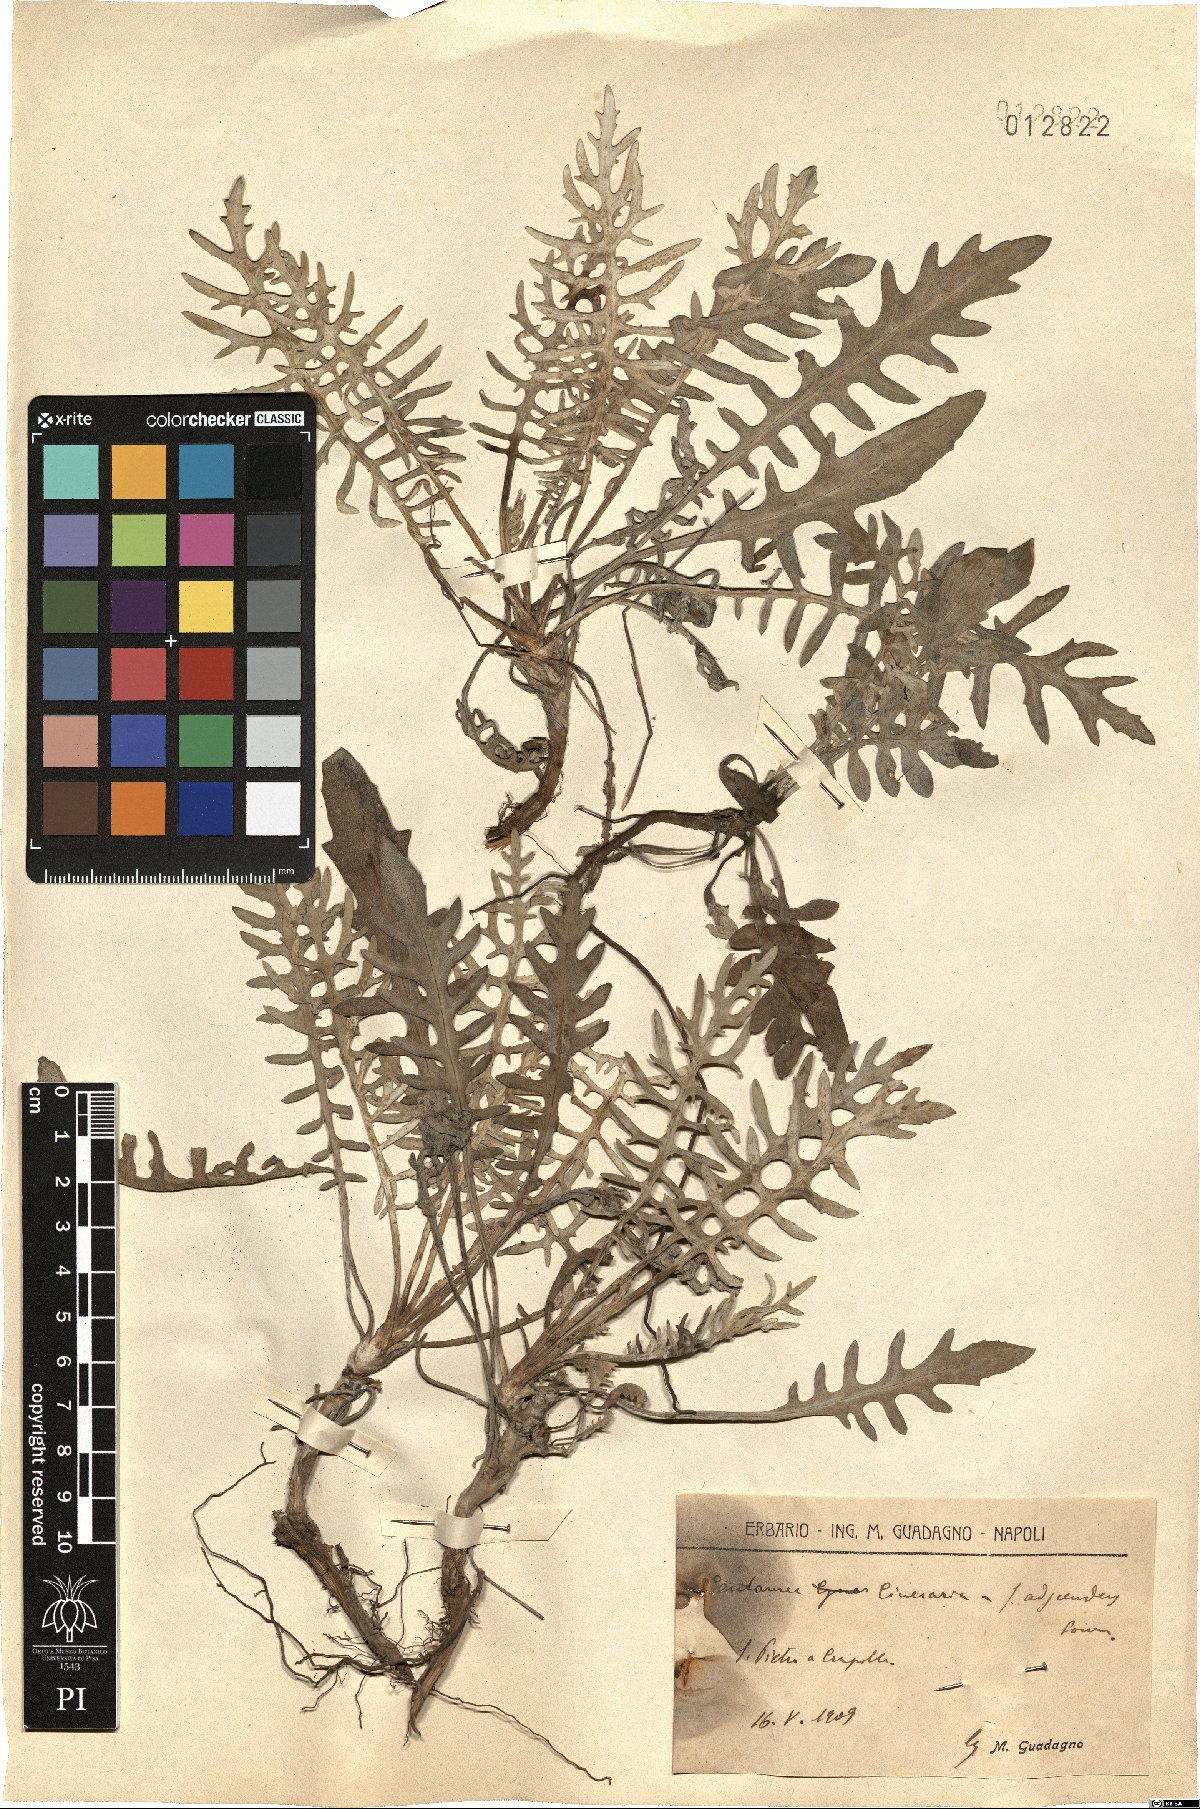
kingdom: Plantae
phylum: Tracheophyta
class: Magnoliopsida
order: Asterales
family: Asteraceae
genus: Centaurea
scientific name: Centaurea cineraria
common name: Dusty miller
